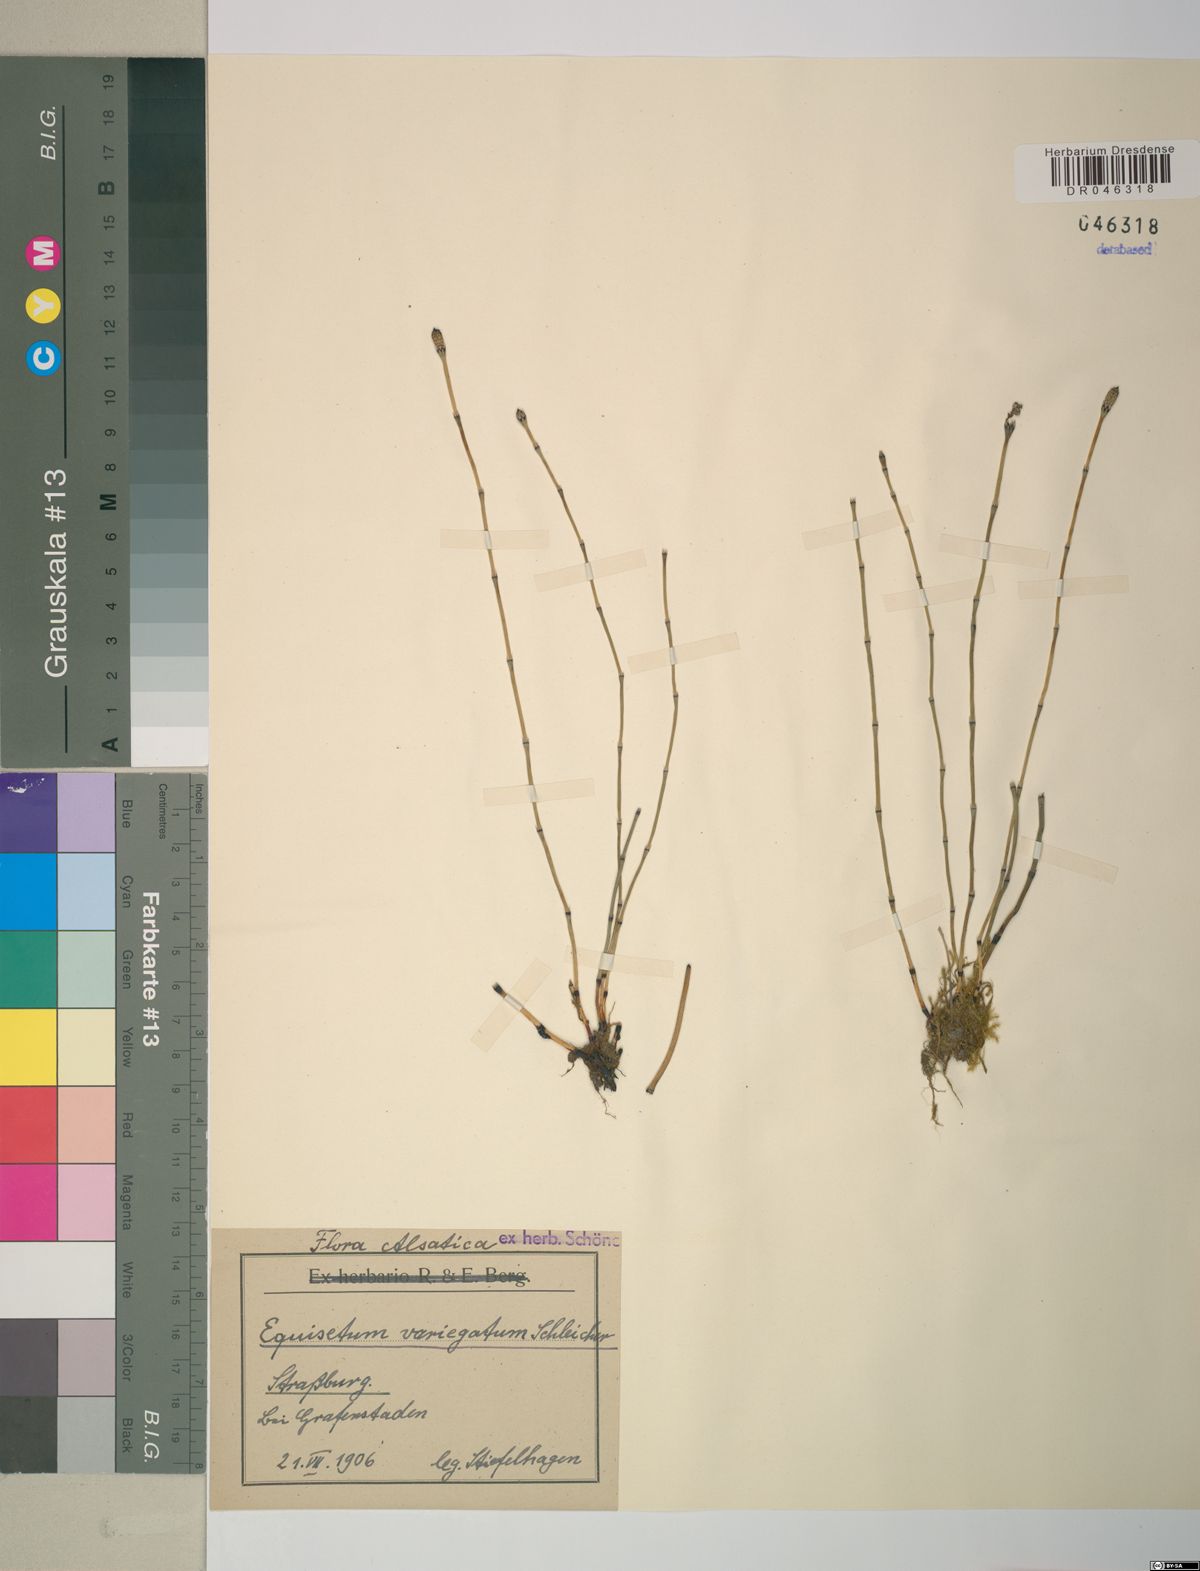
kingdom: Plantae
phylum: Tracheophyta
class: Polypodiopsida
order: Equisetales
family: Equisetaceae
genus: Equisetum
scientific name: Equisetum variegatum
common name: Variegated horsetail
